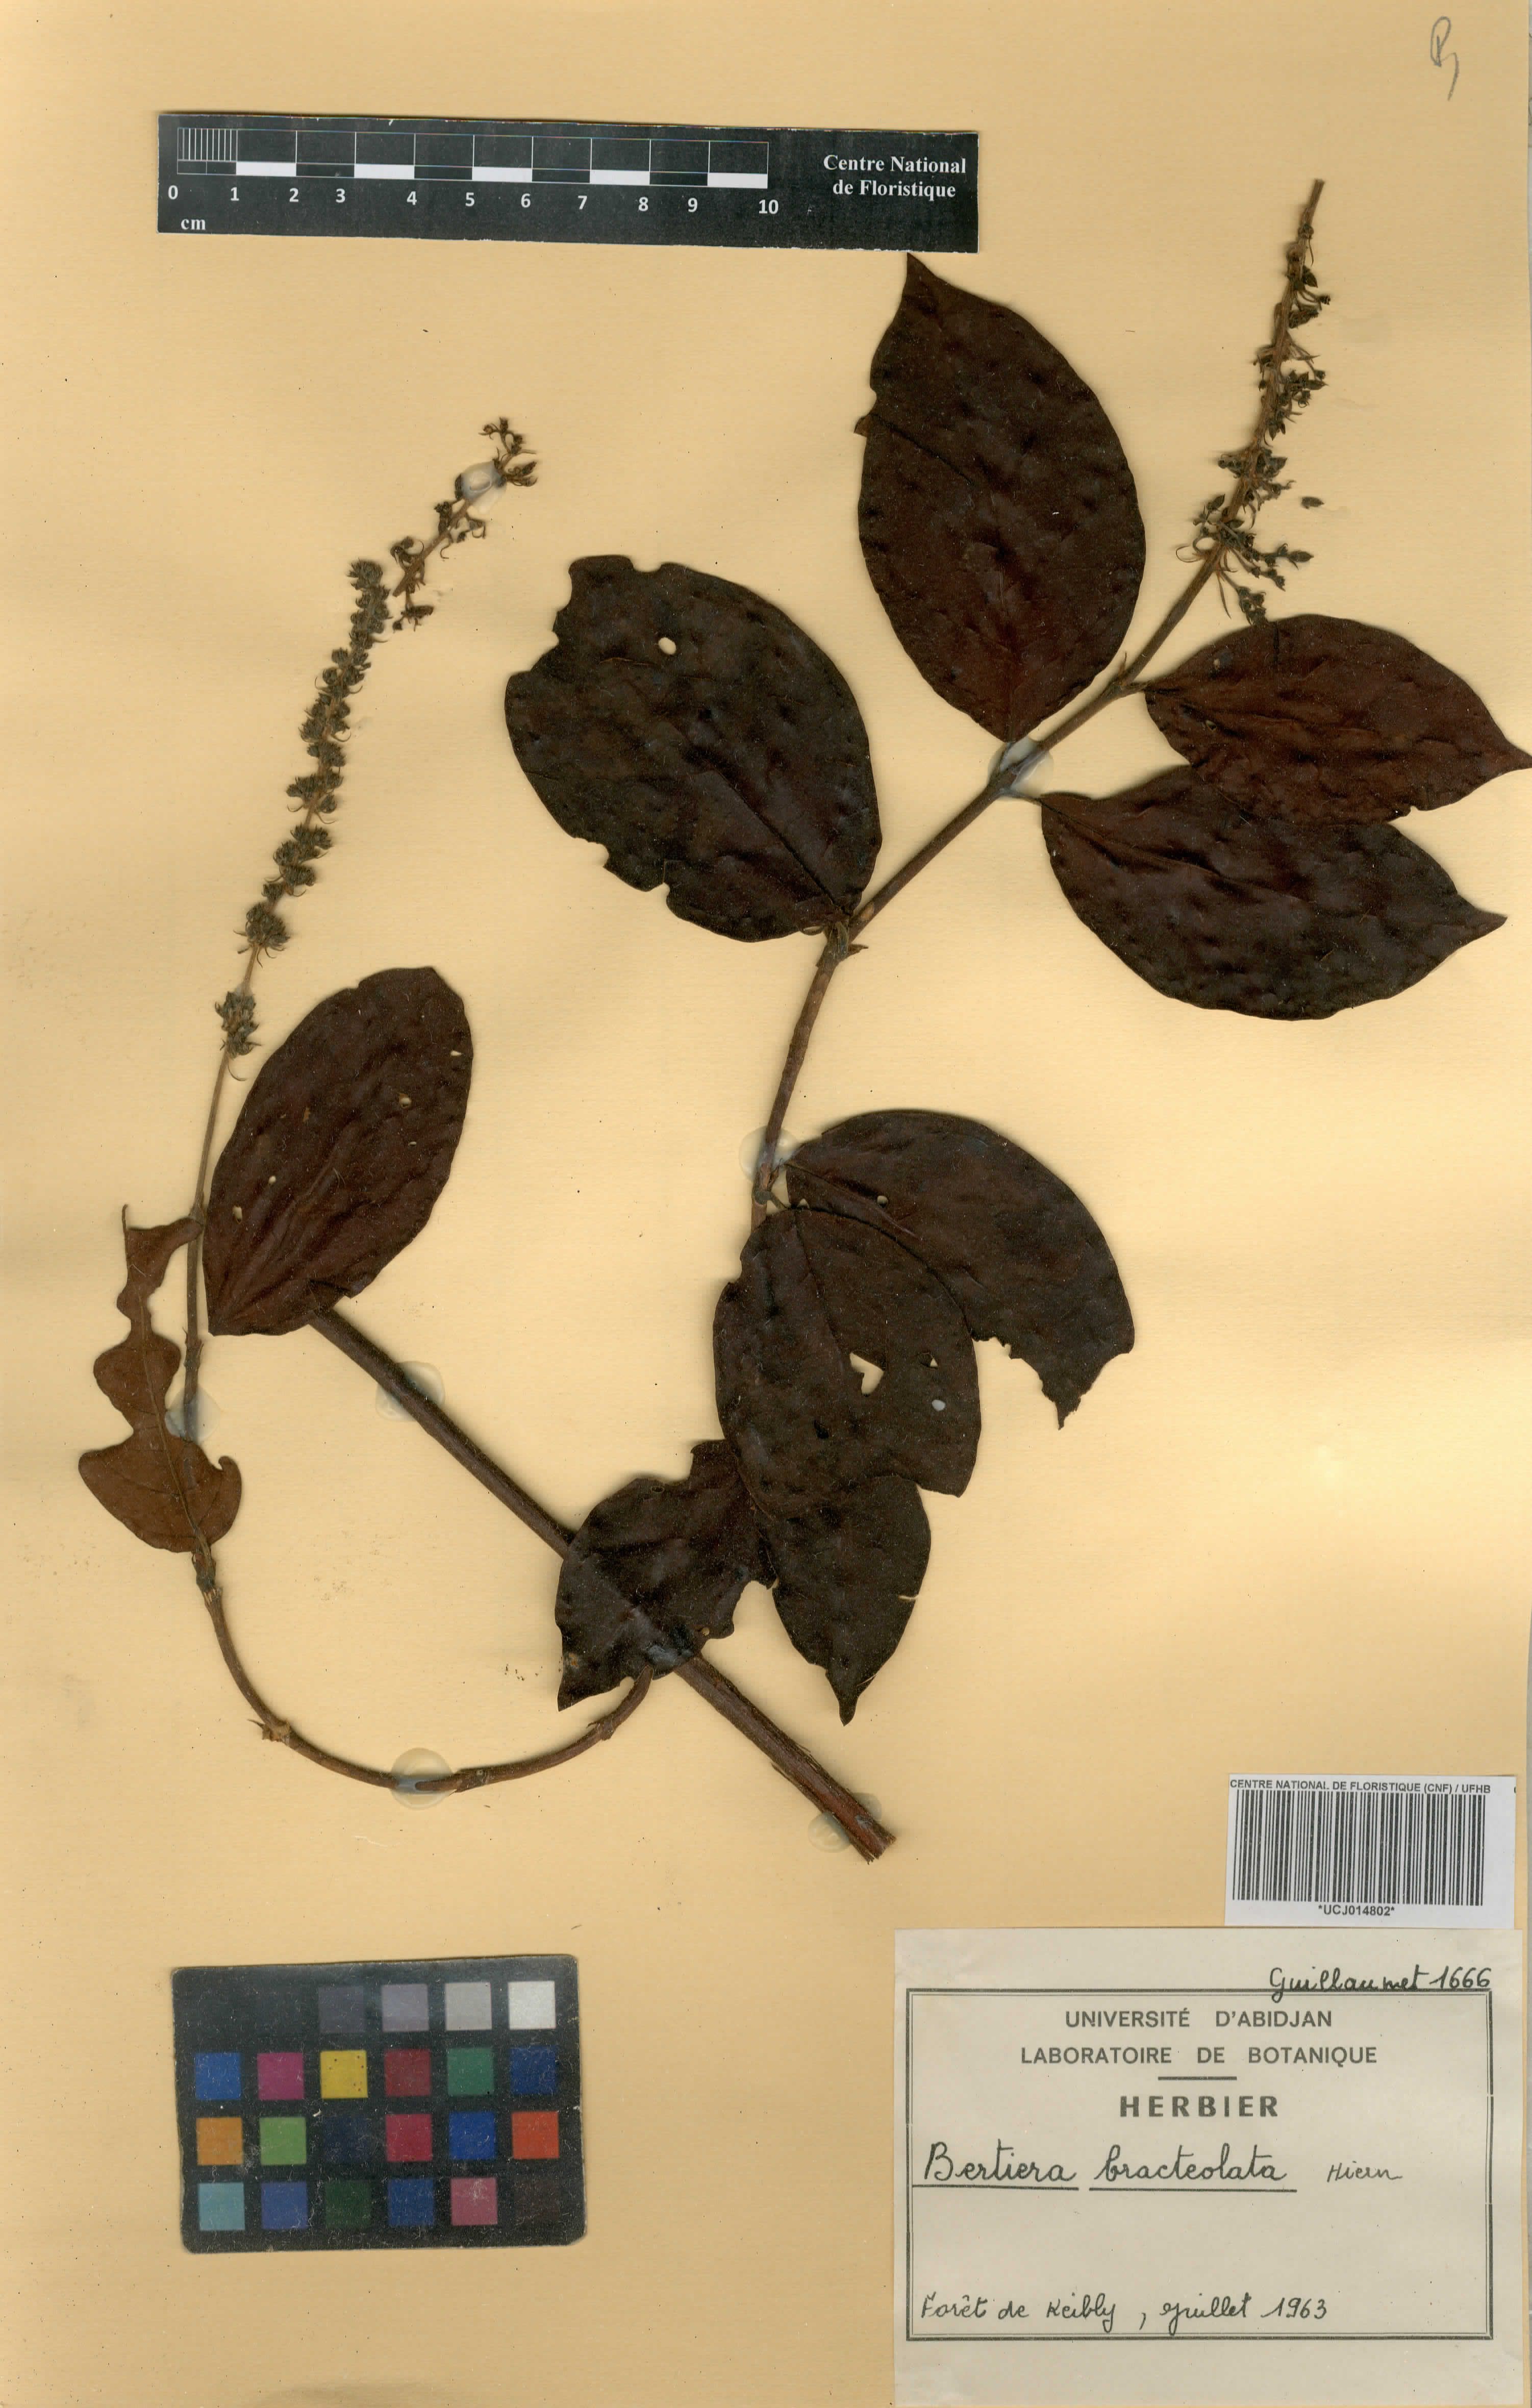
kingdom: Plantae
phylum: Tracheophyta
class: Magnoliopsida
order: Gentianales
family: Rubiaceae
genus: Bertiera
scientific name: Bertiera bracteolata
